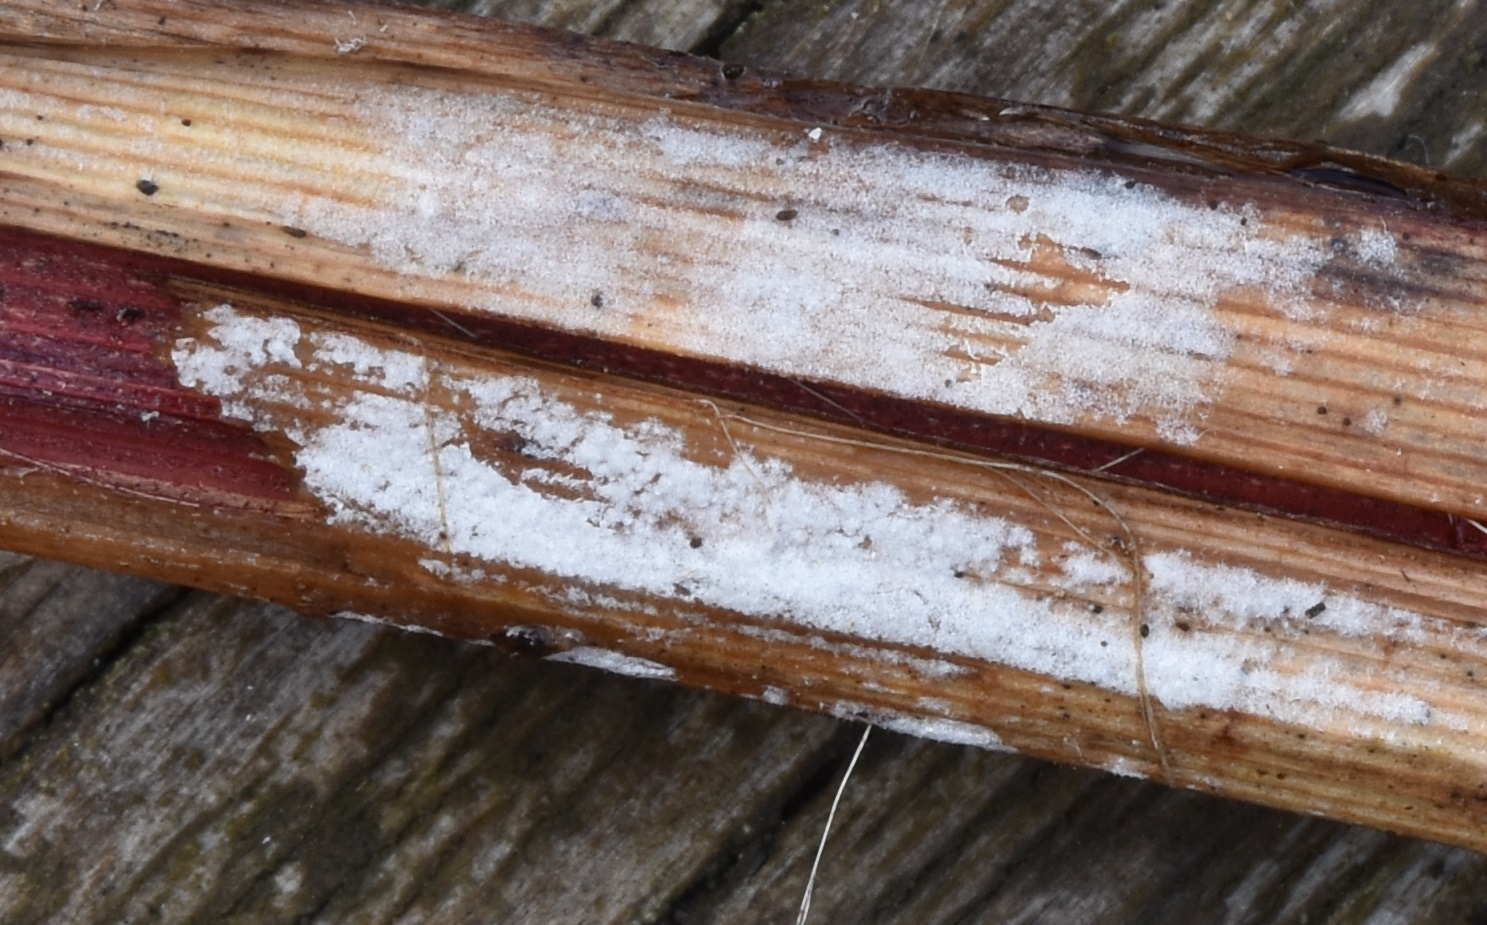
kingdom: Fungi
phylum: Basidiomycota
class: Agaricomycetes
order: Polyporales
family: Polyporaceae
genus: Epithele
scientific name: Epithele typhae
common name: starpig
